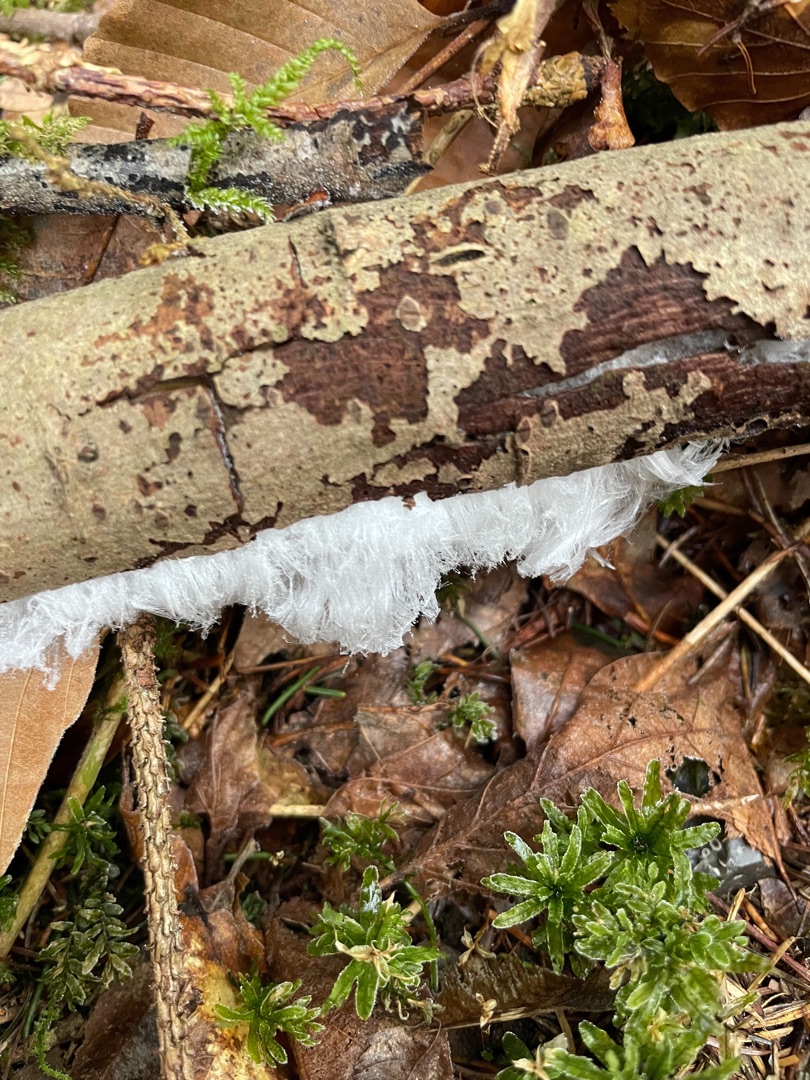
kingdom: Fungi
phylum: Basidiomycota
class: Tremellomycetes
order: Tremellales
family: Exidiaceae
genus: Exidiopsis
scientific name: Exidiopsis effusa
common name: Smuk bævrehinde
